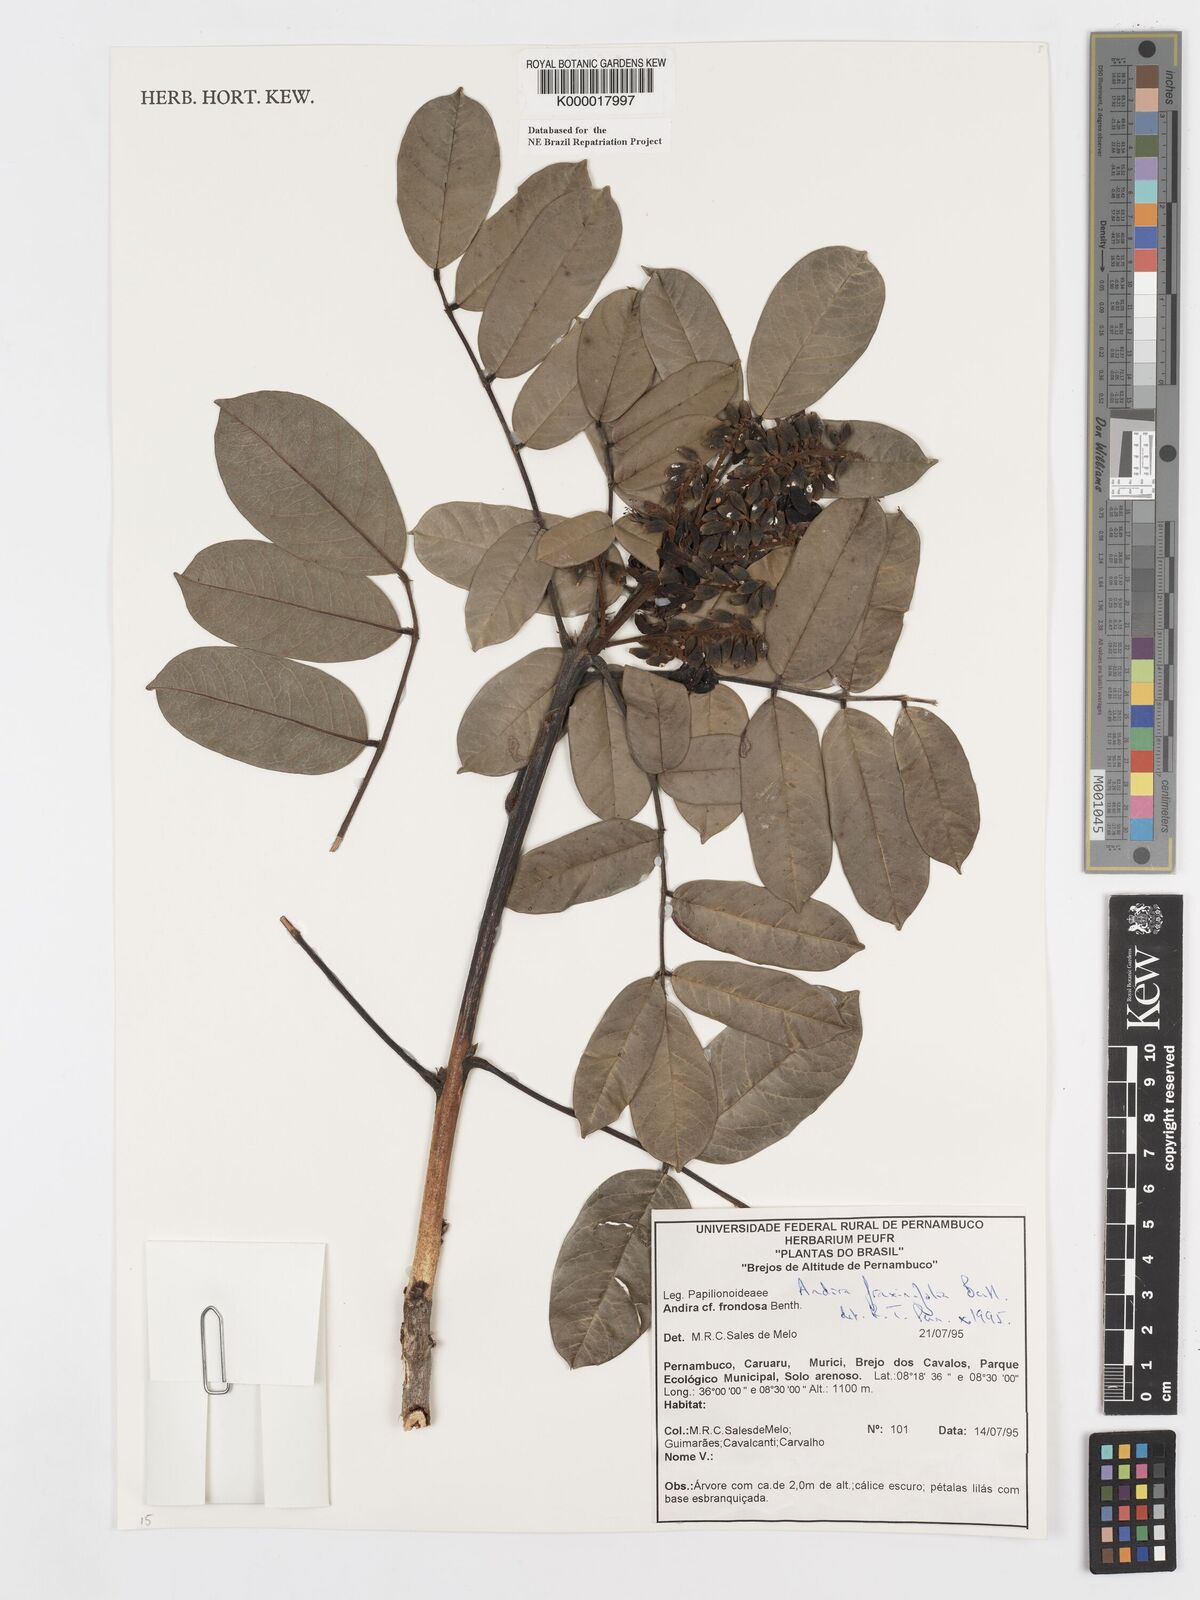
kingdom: Plantae
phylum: Tracheophyta
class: Magnoliopsida
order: Fabales
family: Fabaceae
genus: Andira
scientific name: Andira fraxinifolia
